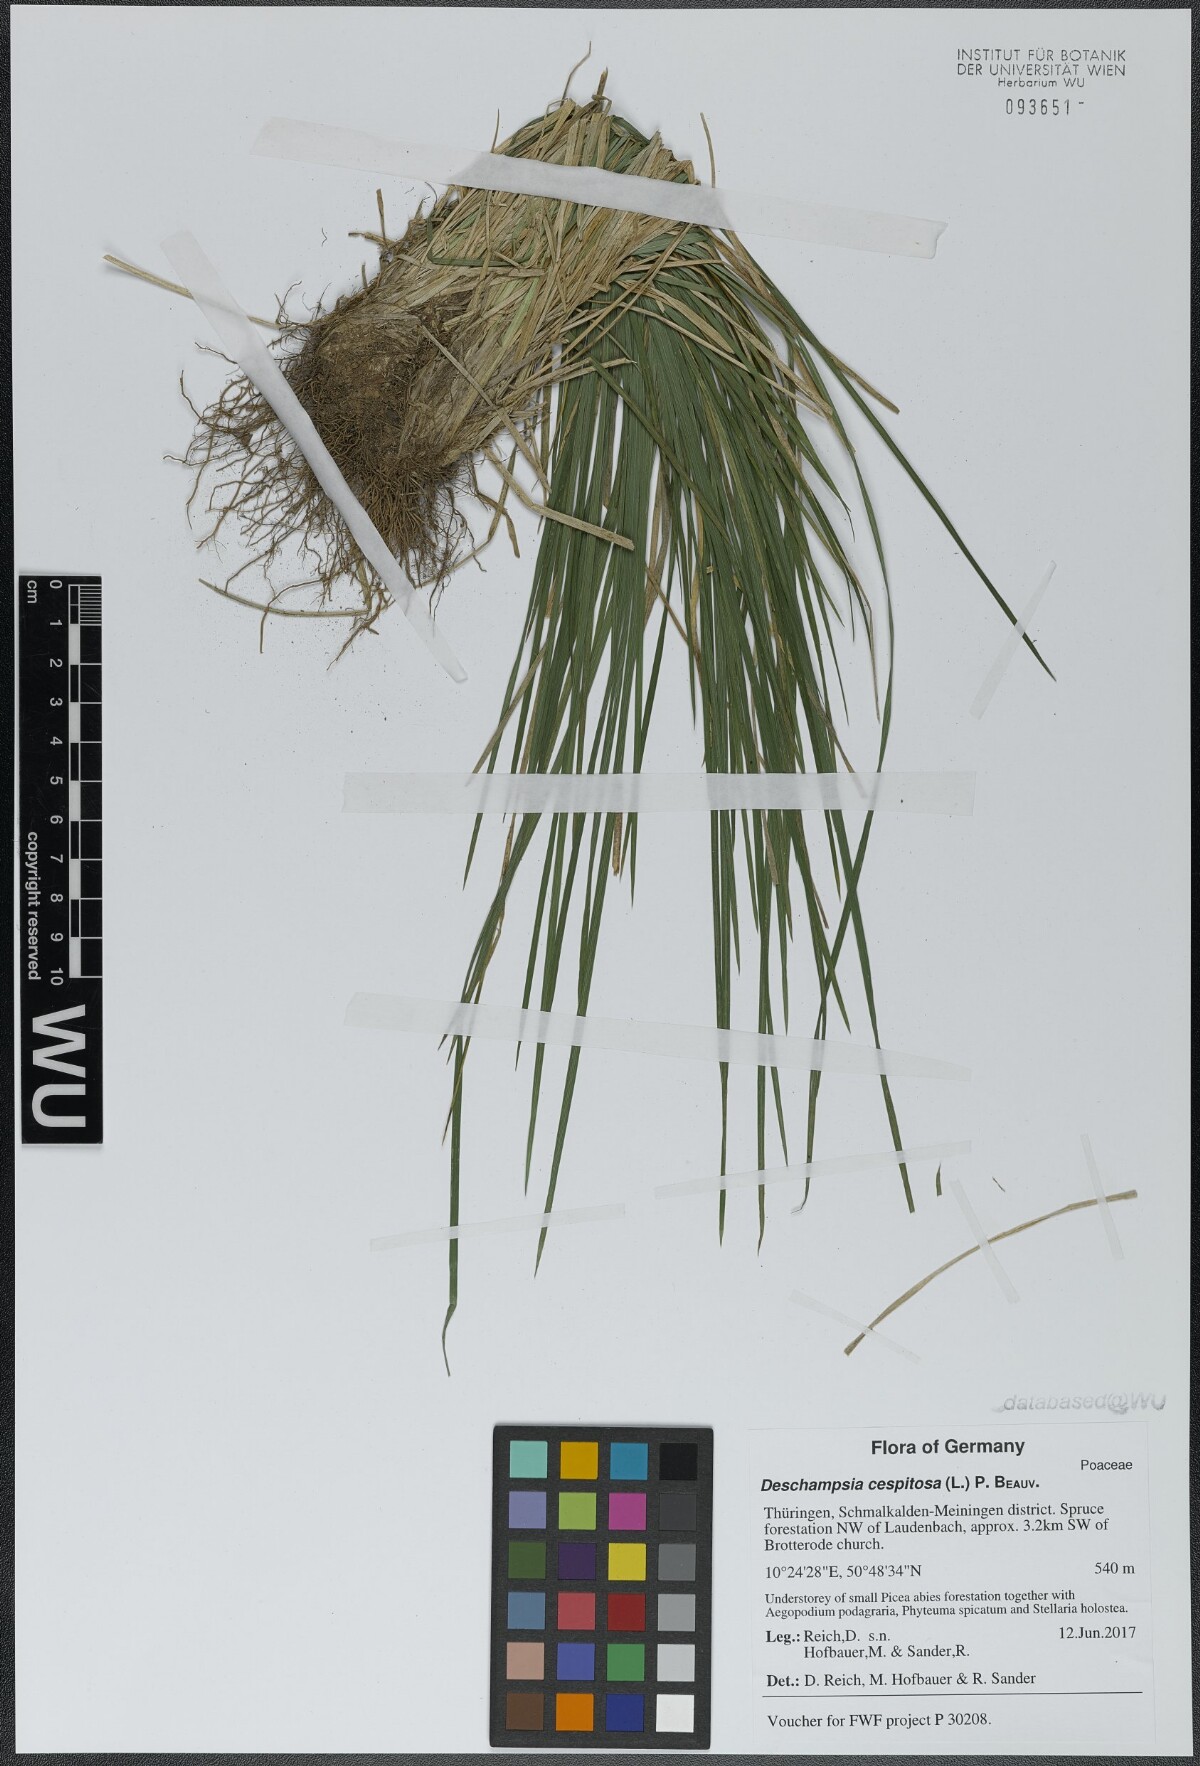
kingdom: Plantae
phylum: Tracheophyta
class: Liliopsida
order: Poales
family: Poaceae
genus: Deschampsia
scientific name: Deschampsia cespitosa
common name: Tufted hair-grass
